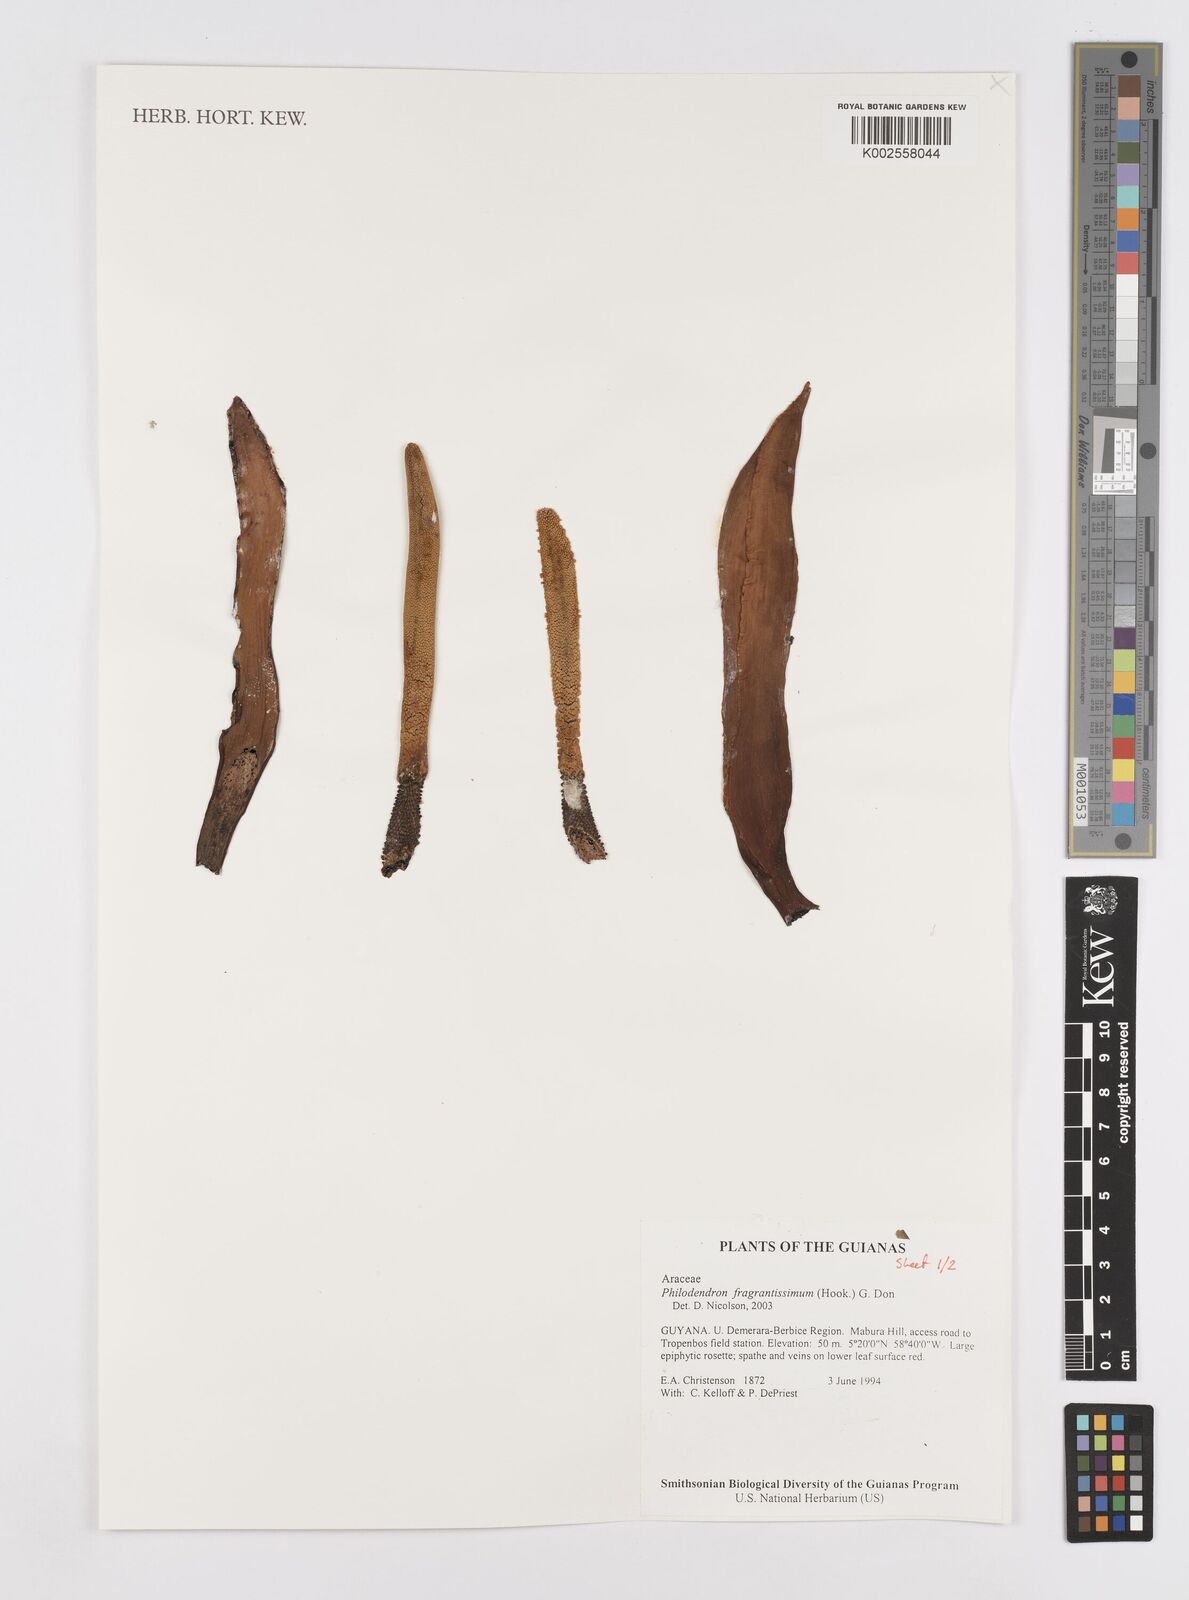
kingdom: Plantae
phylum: Tracheophyta
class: Liliopsida
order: Alismatales
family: Araceae
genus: Philodendron
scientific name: Philodendron fragrantissimum
